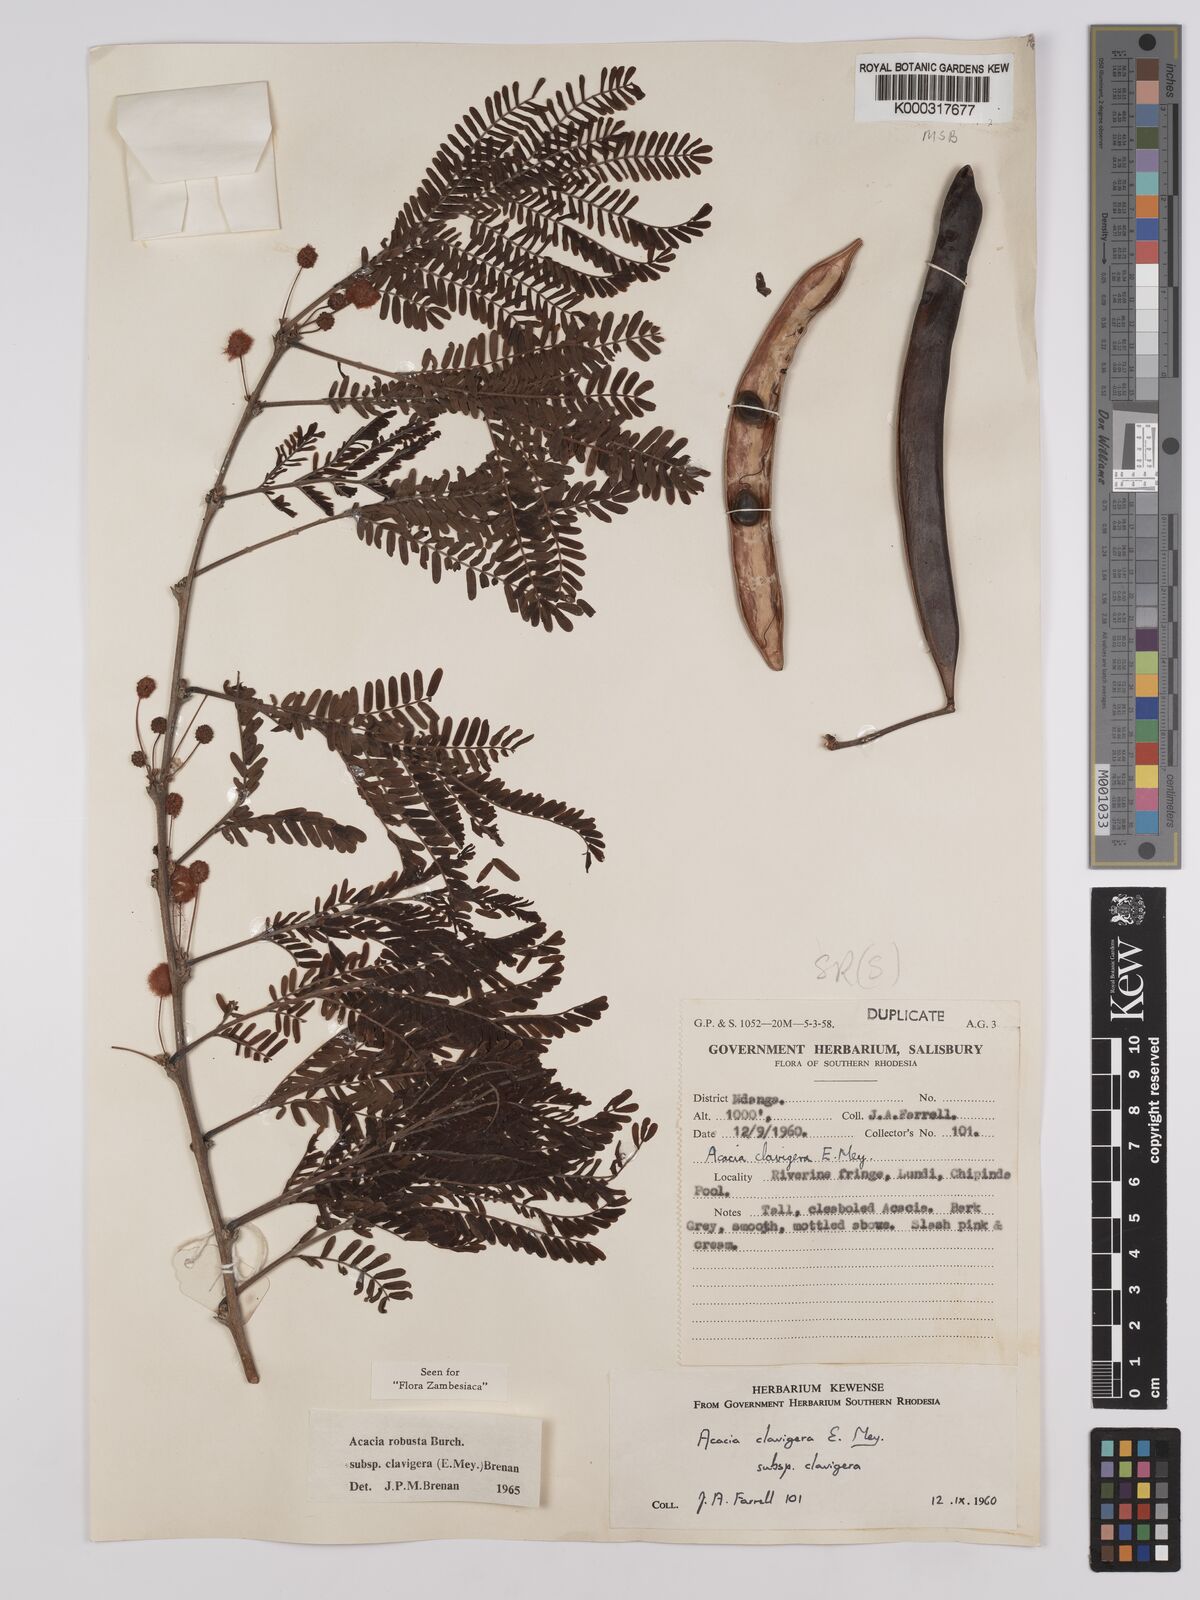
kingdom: Plantae
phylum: Tracheophyta
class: Magnoliopsida
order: Fabales
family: Fabaceae
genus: Vachellia
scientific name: Vachellia robusta
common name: Ankle thorn
